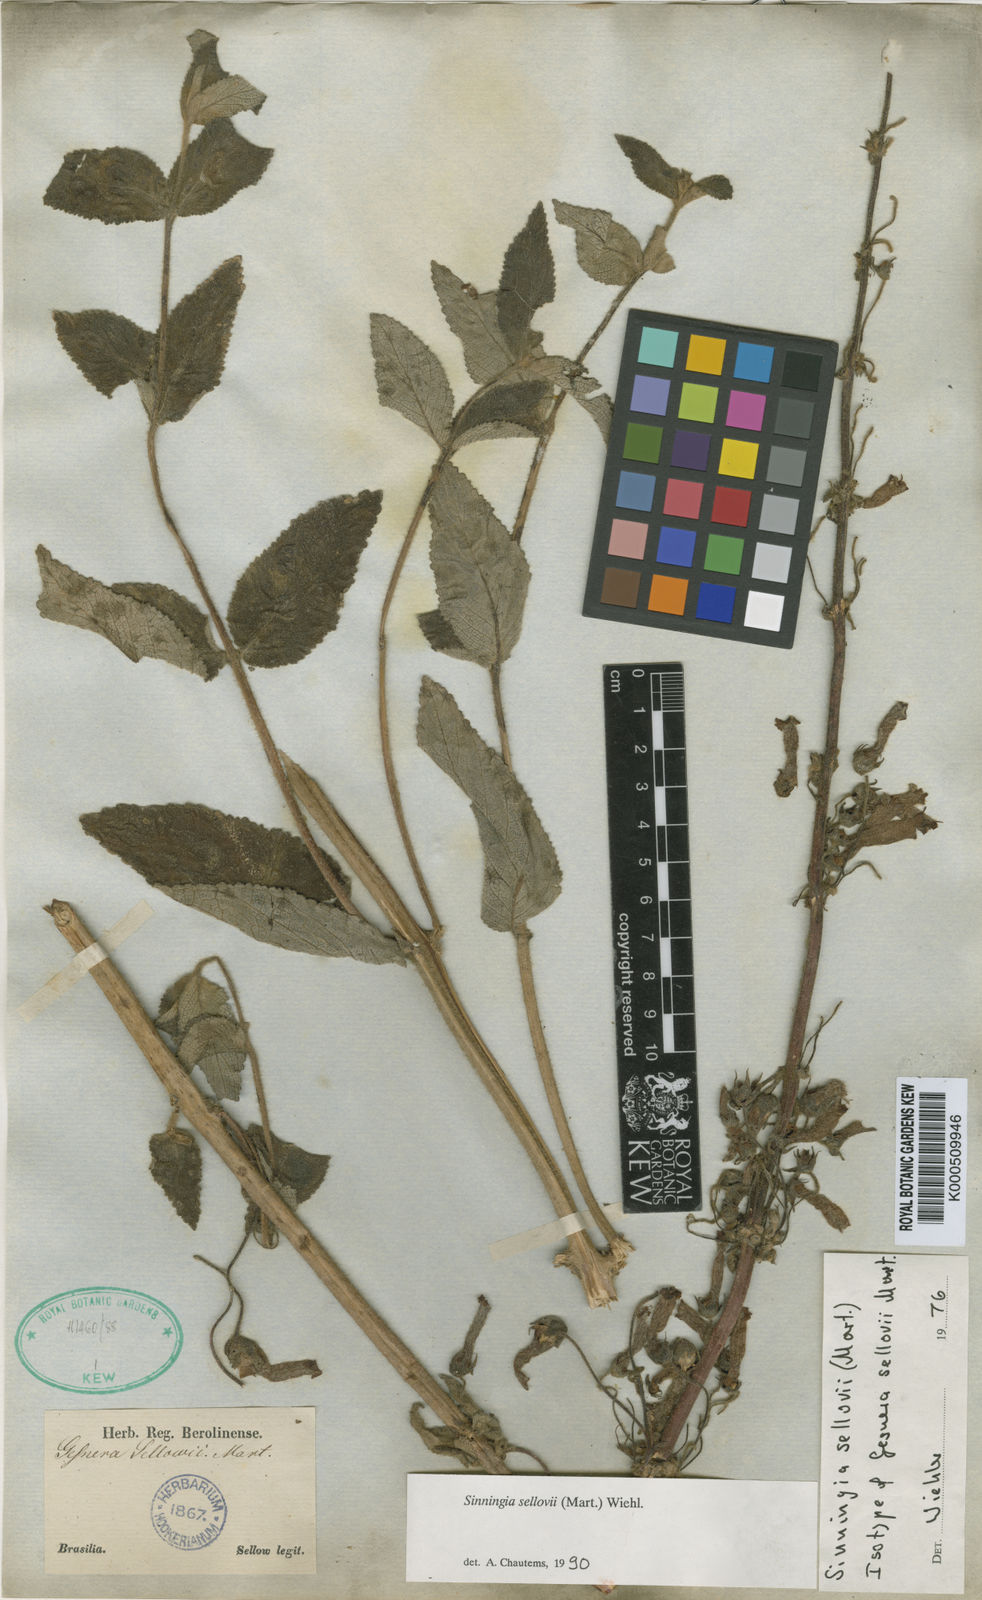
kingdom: Plantae
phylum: Tracheophyta
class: Magnoliopsida
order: Lamiales
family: Gesneriaceae
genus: Sinningia
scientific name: Sinningia sellovii
